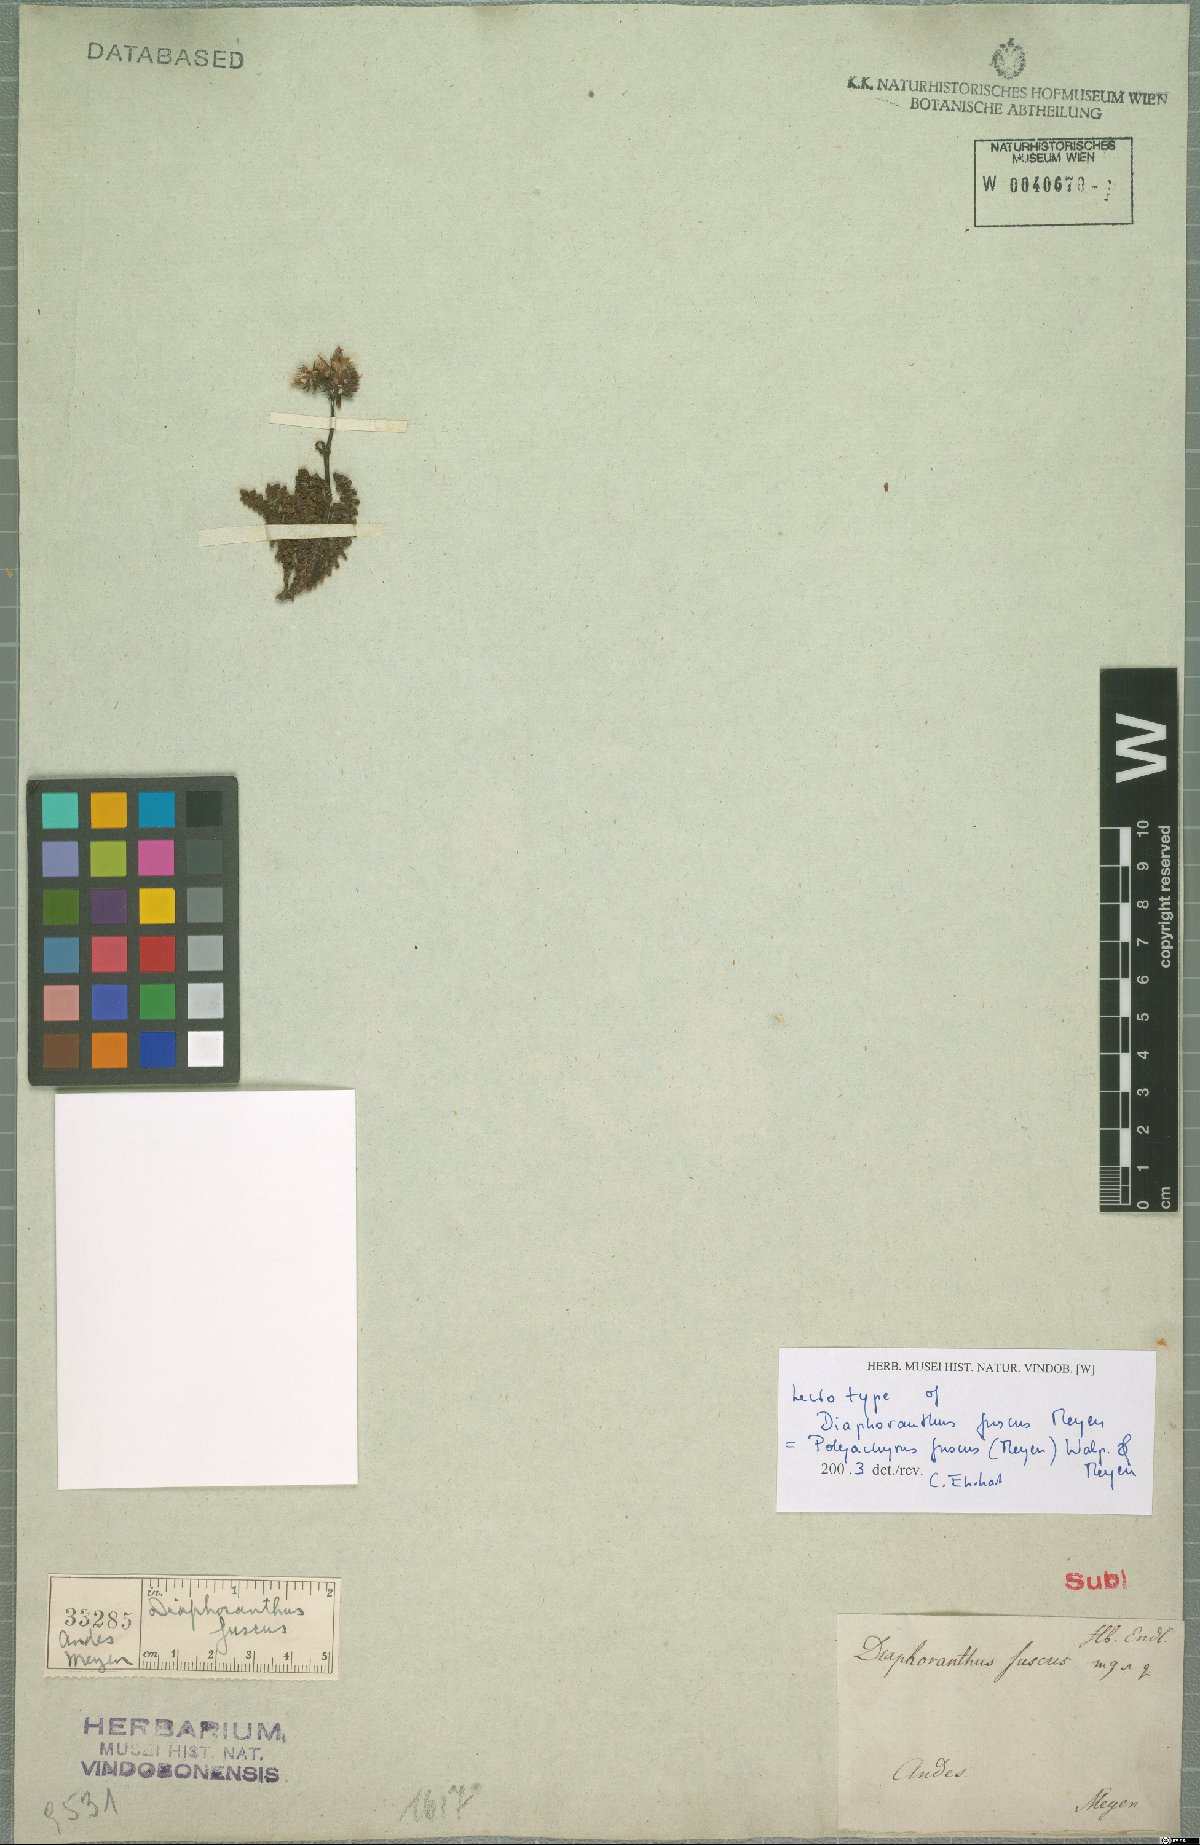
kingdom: Plantae
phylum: Tracheophyta
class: Magnoliopsida
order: Asterales
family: Asteraceae
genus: Polyachyrus
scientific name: Polyachyrus fuscus
